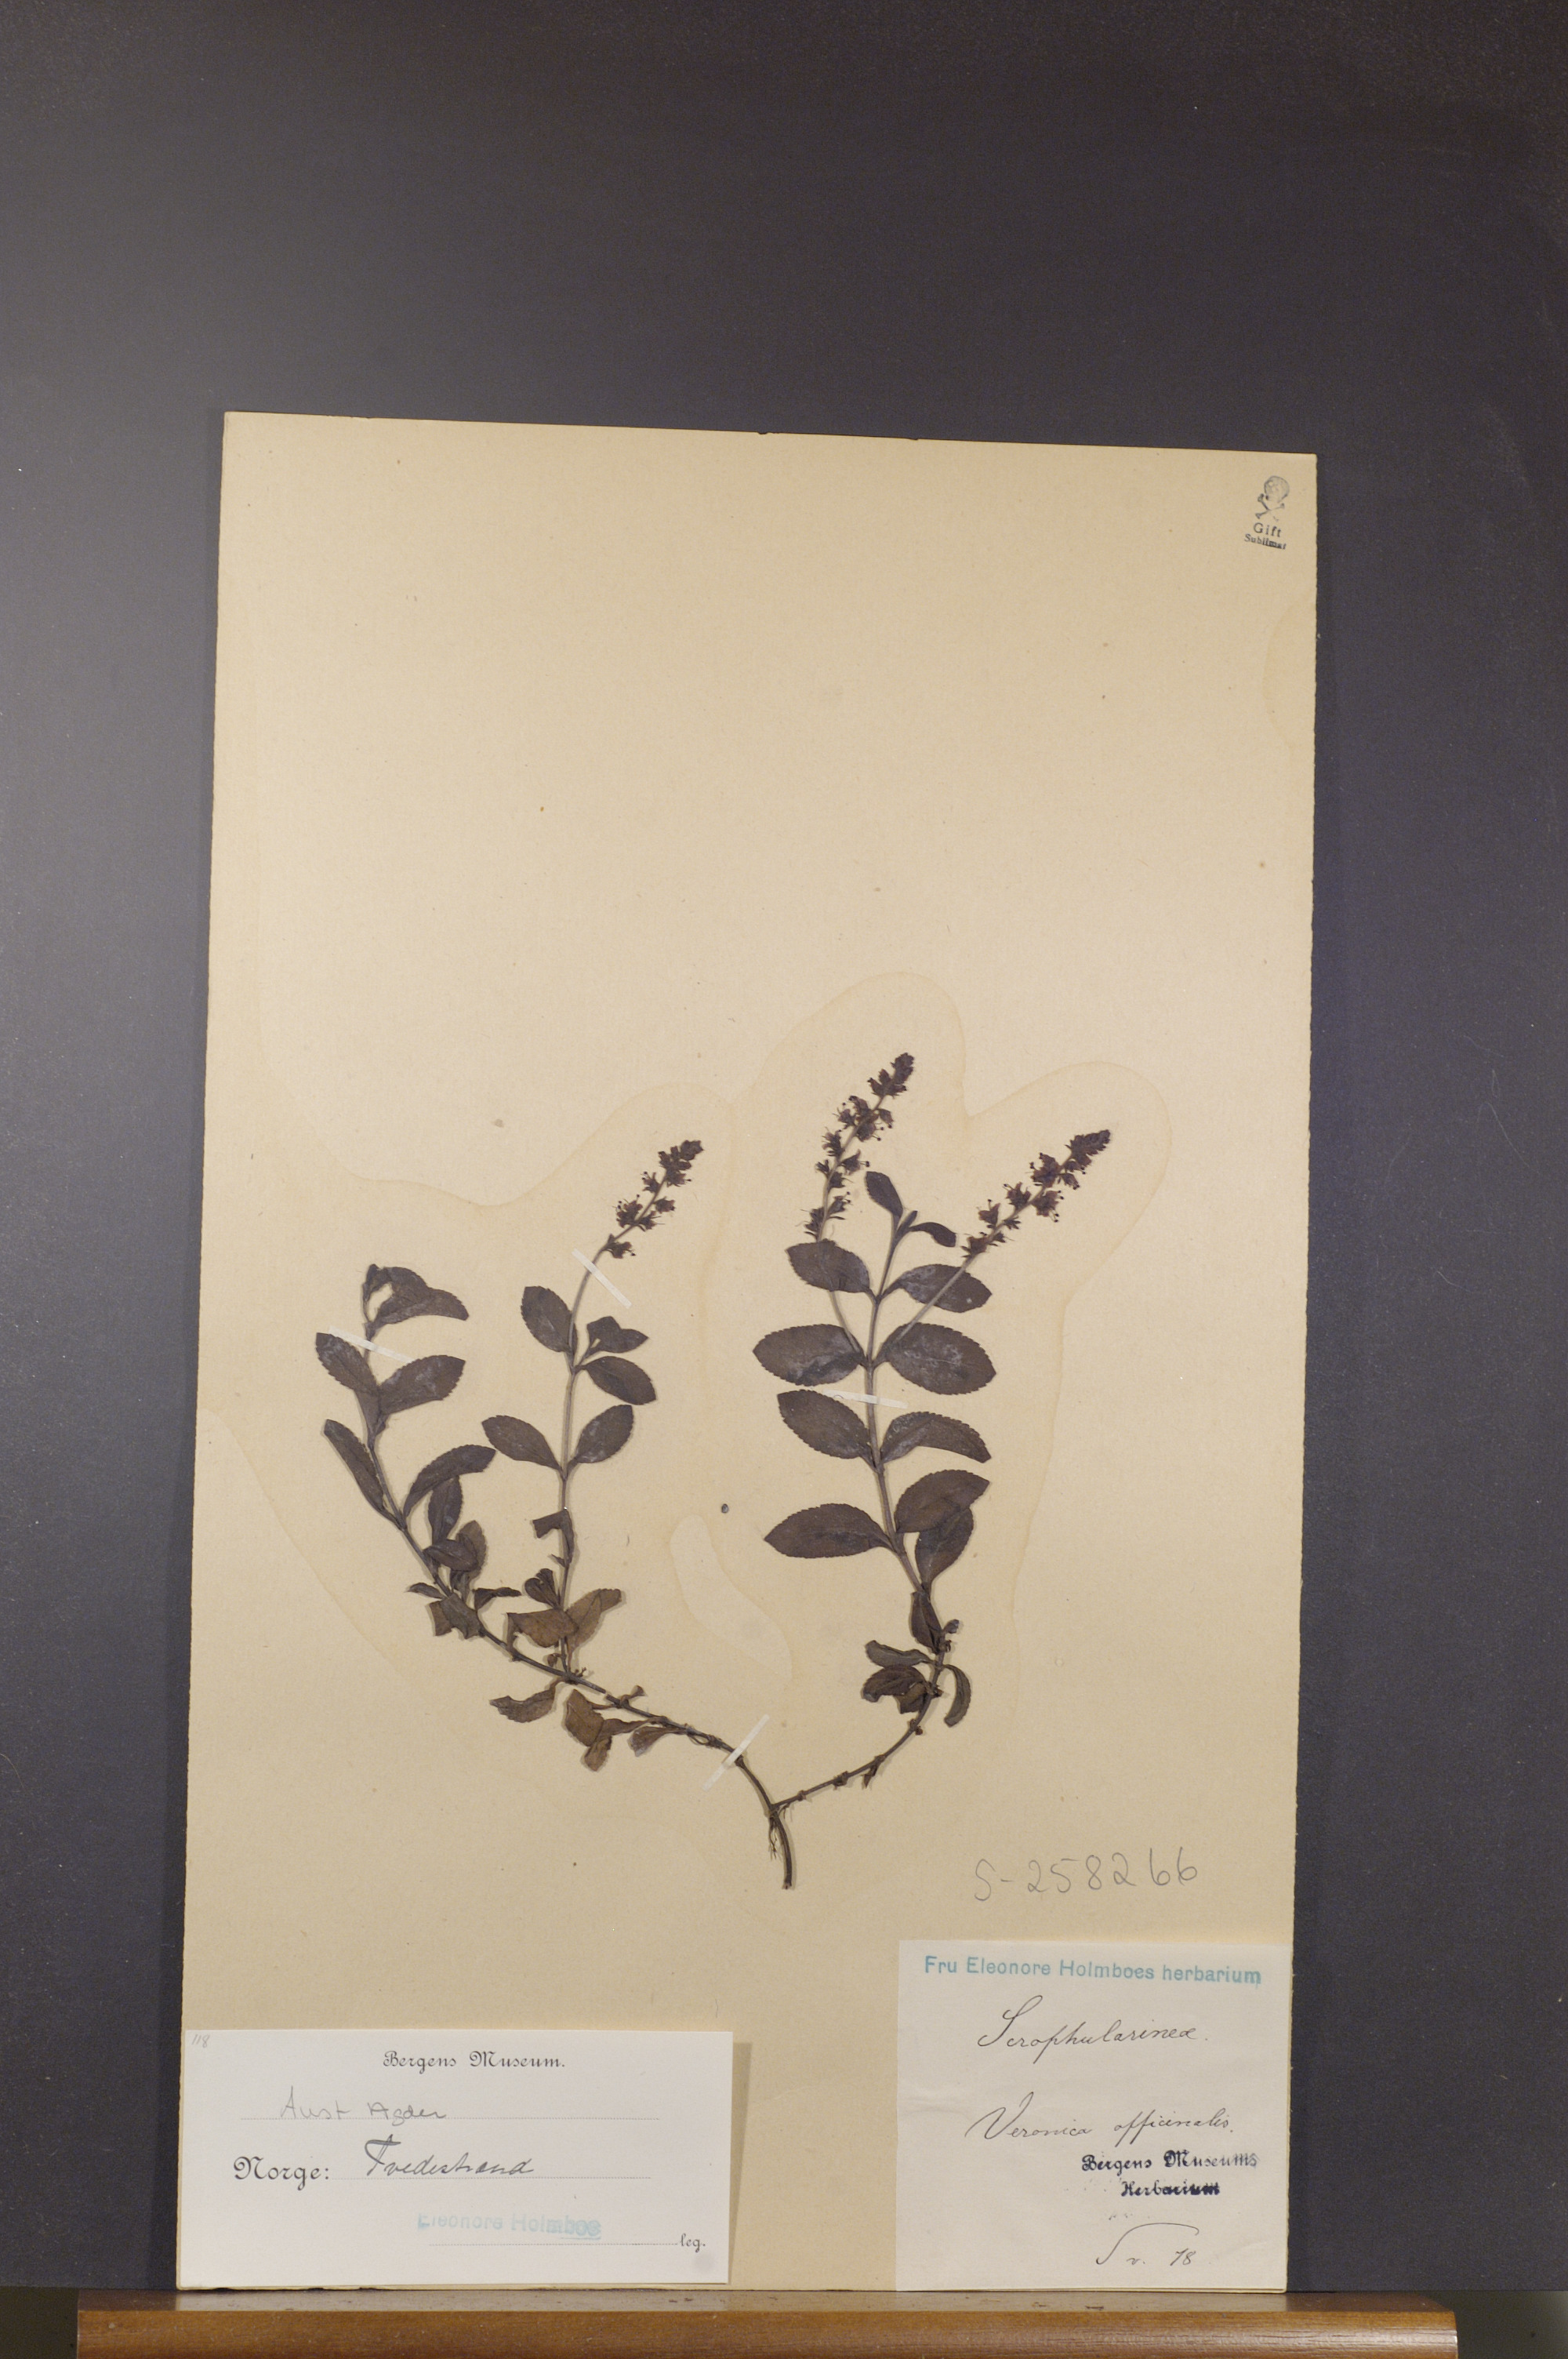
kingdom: Plantae
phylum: Tracheophyta
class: Magnoliopsida
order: Lamiales
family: Plantaginaceae
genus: Veronica
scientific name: Veronica officinalis
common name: Common speedwell
